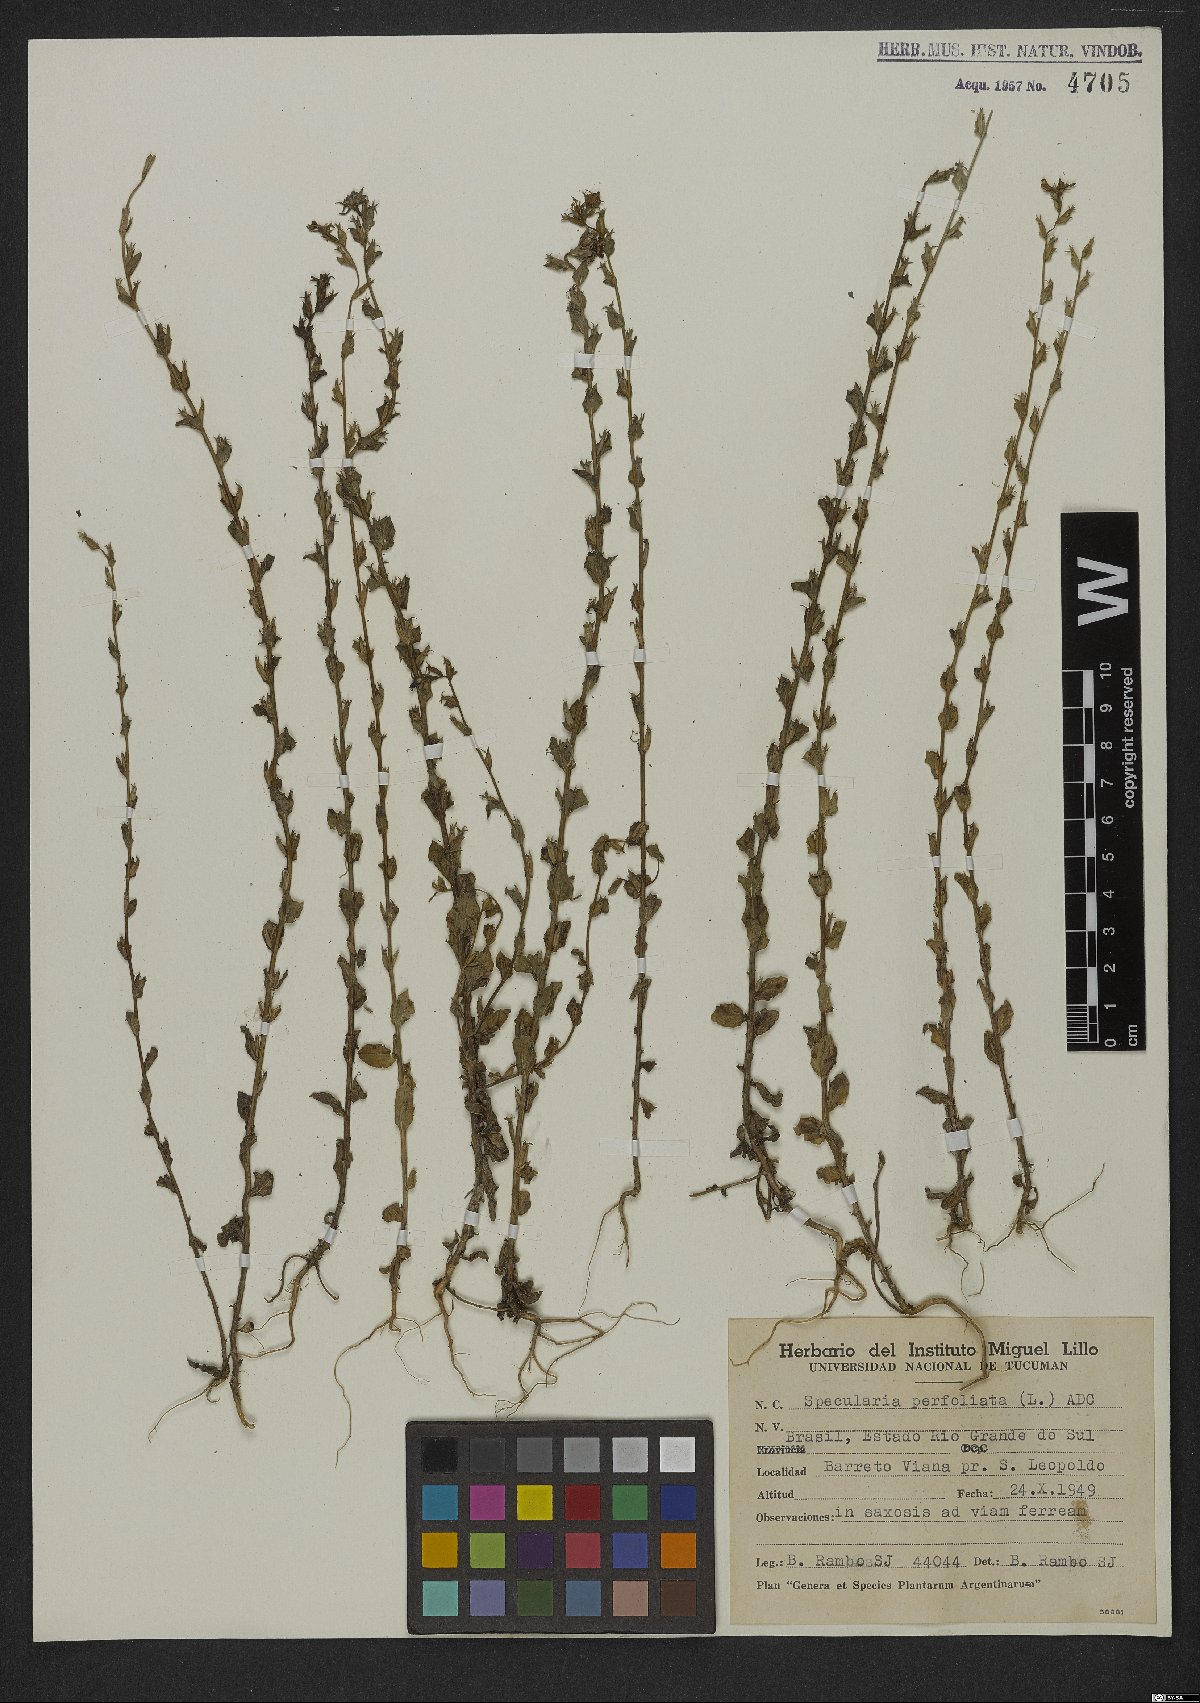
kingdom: Plantae
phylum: Tracheophyta
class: Magnoliopsida
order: Asterales
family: Campanulaceae
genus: Triodanis
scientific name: Triodanis perfoliata
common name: Clasping venus' looking-glass
